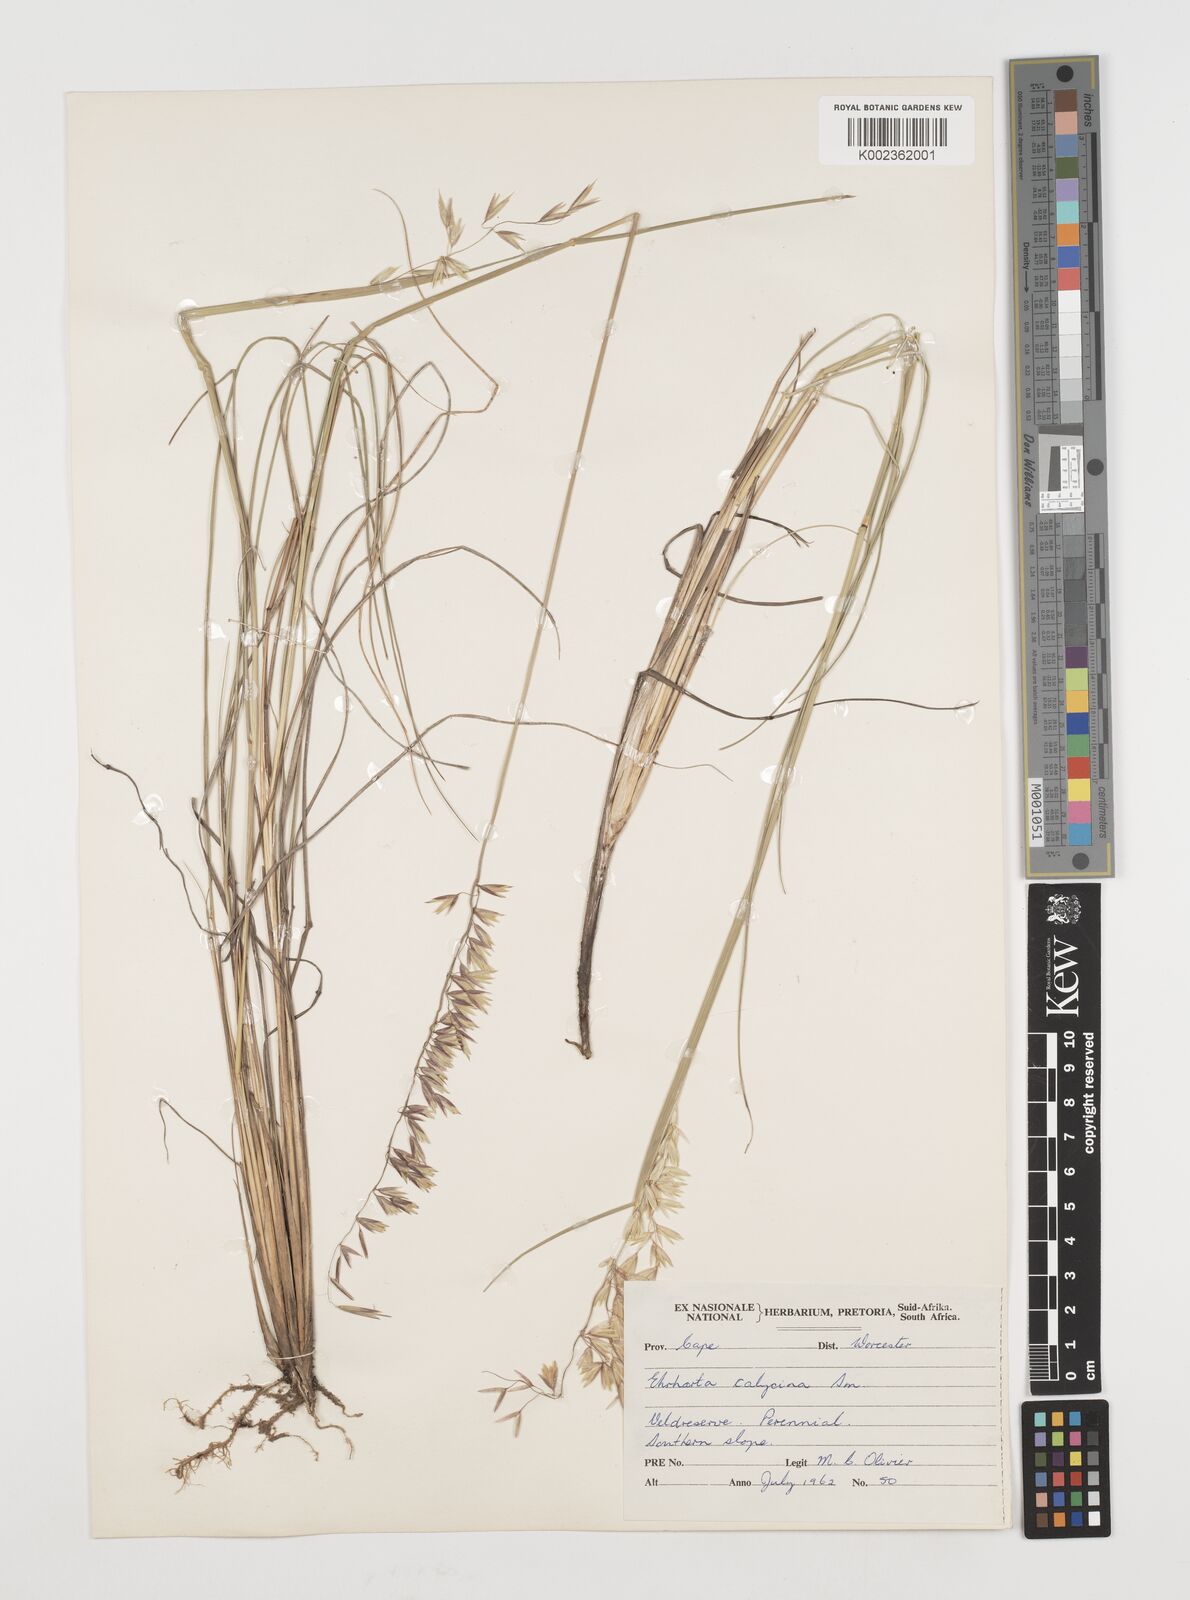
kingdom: Plantae
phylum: Tracheophyta
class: Liliopsida
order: Poales
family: Poaceae
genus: Ehrharta
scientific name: Ehrharta calycina
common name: Perennial veldtgrass
